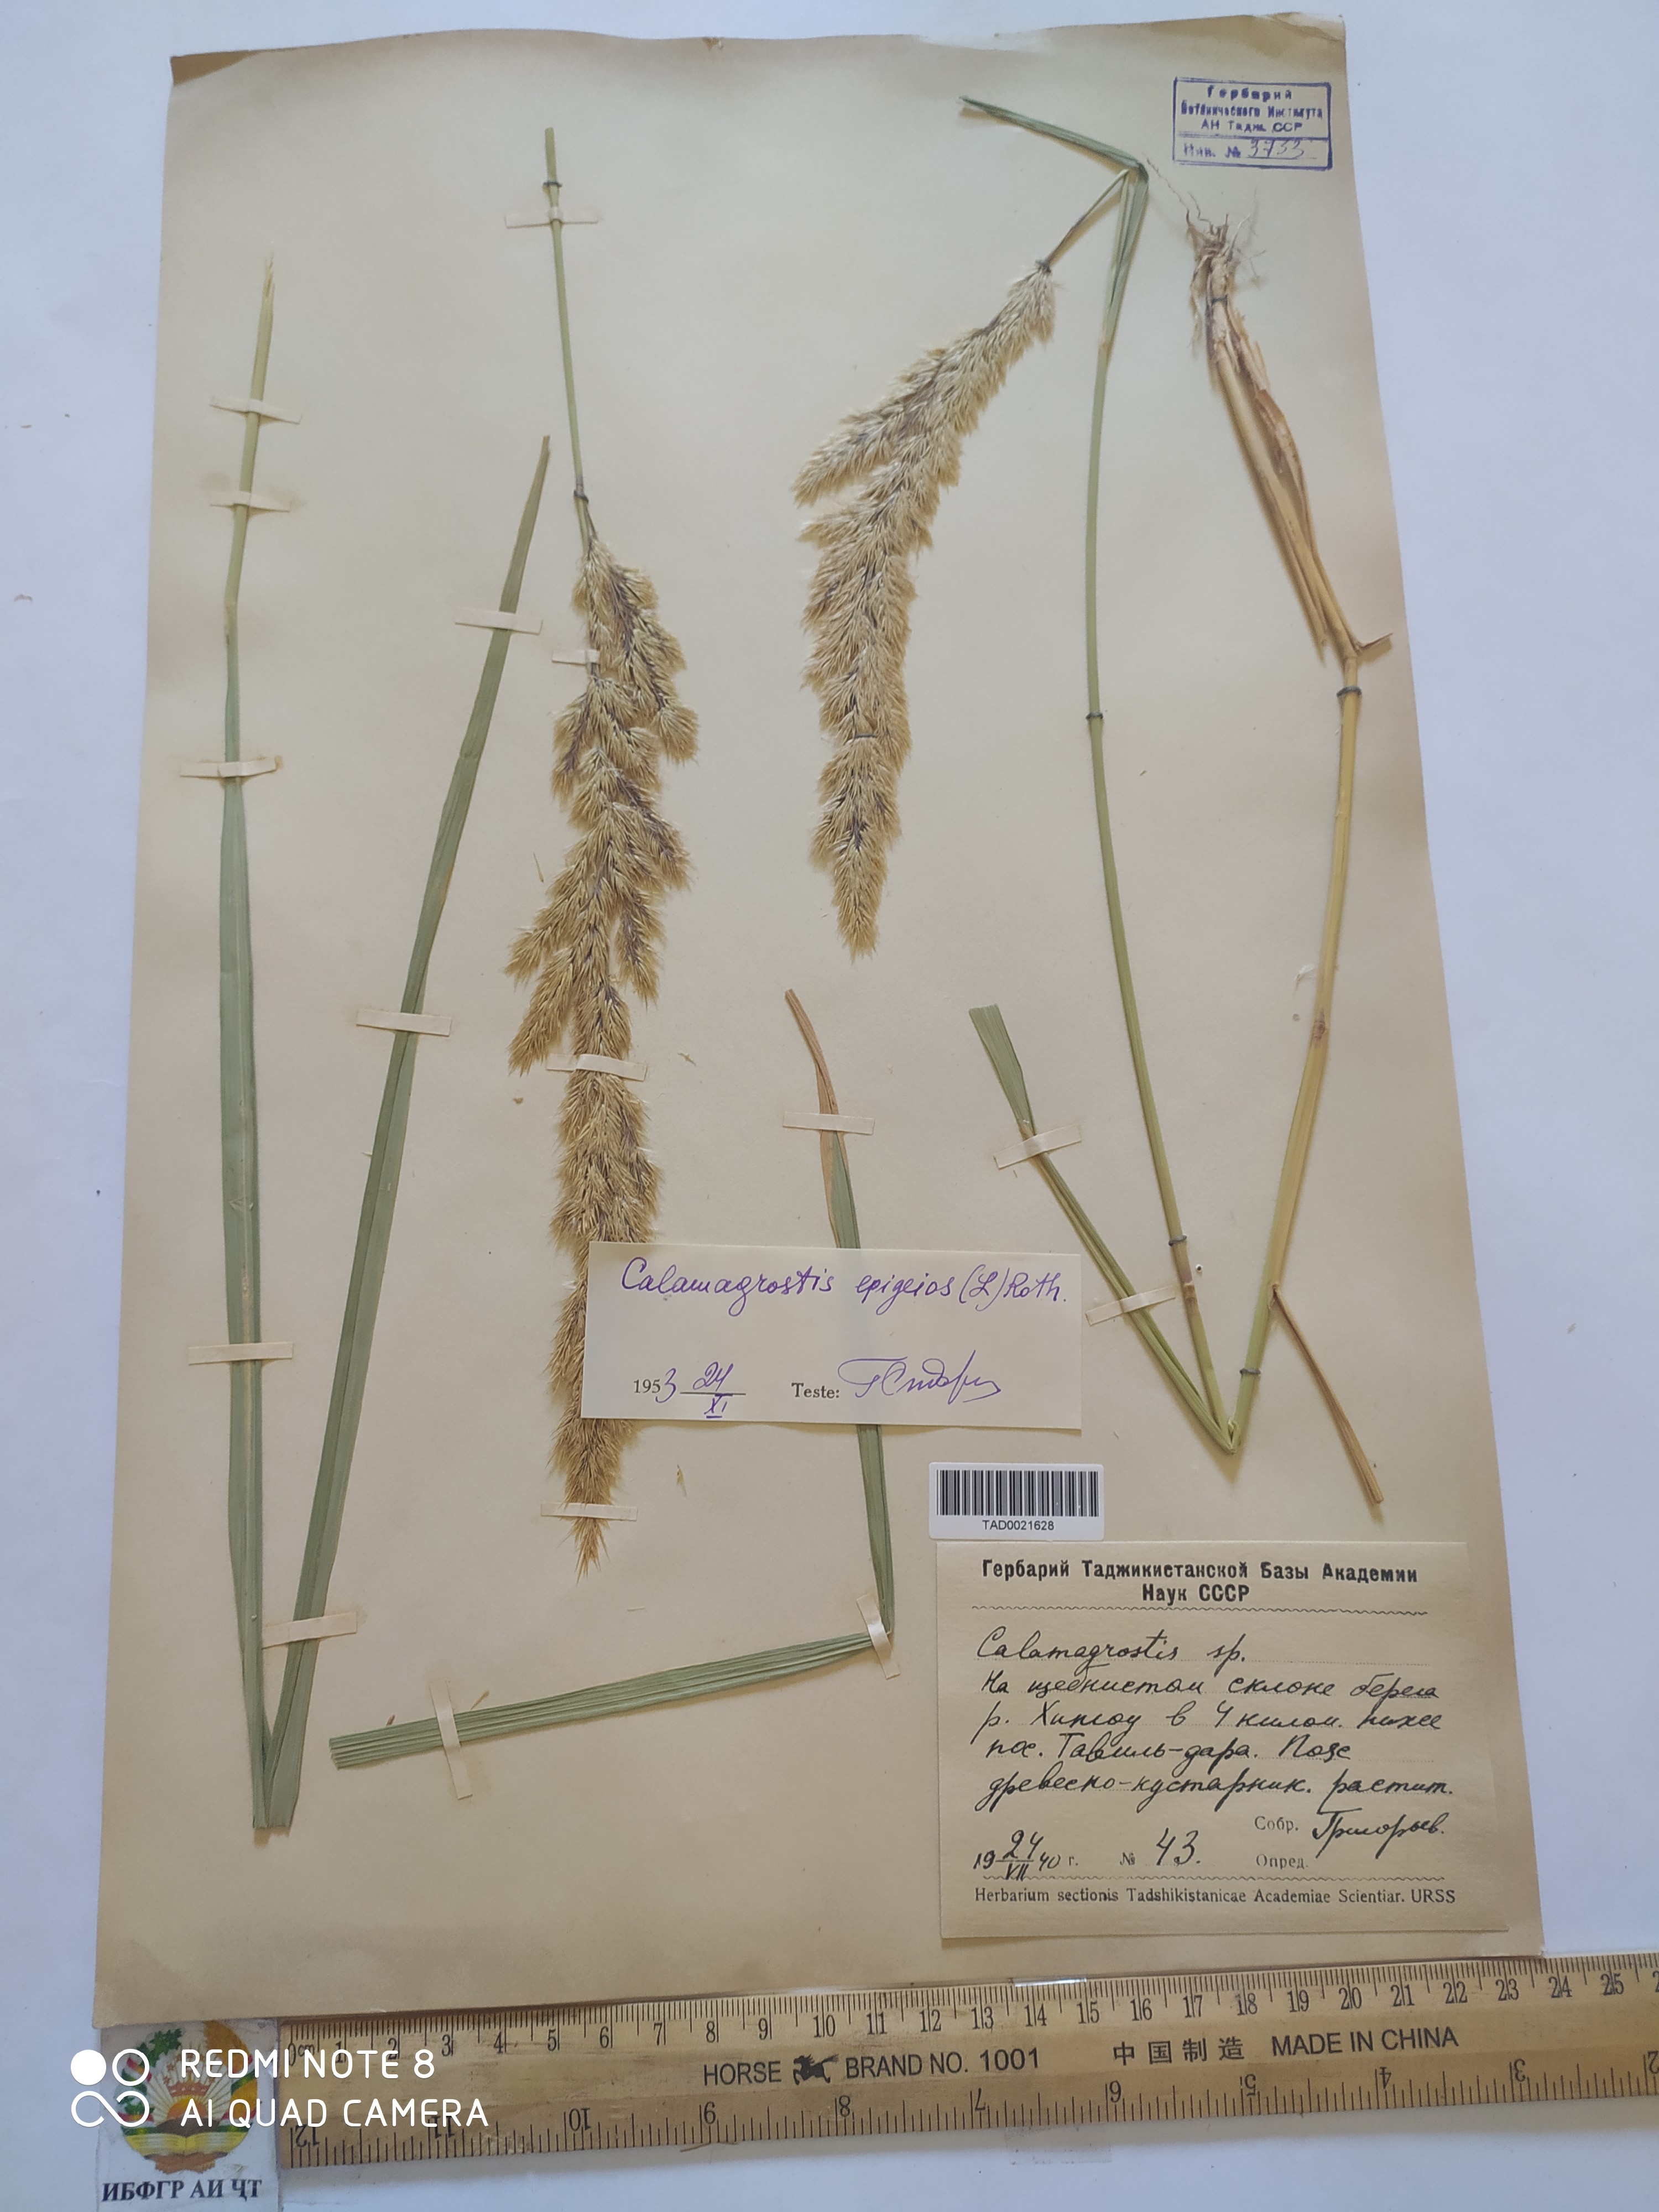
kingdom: Plantae
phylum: Tracheophyta
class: Liliopsida
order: Poales
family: Poaceae
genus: Calamagrostis
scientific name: Calamagrostis epigejos
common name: Wood small-reed
